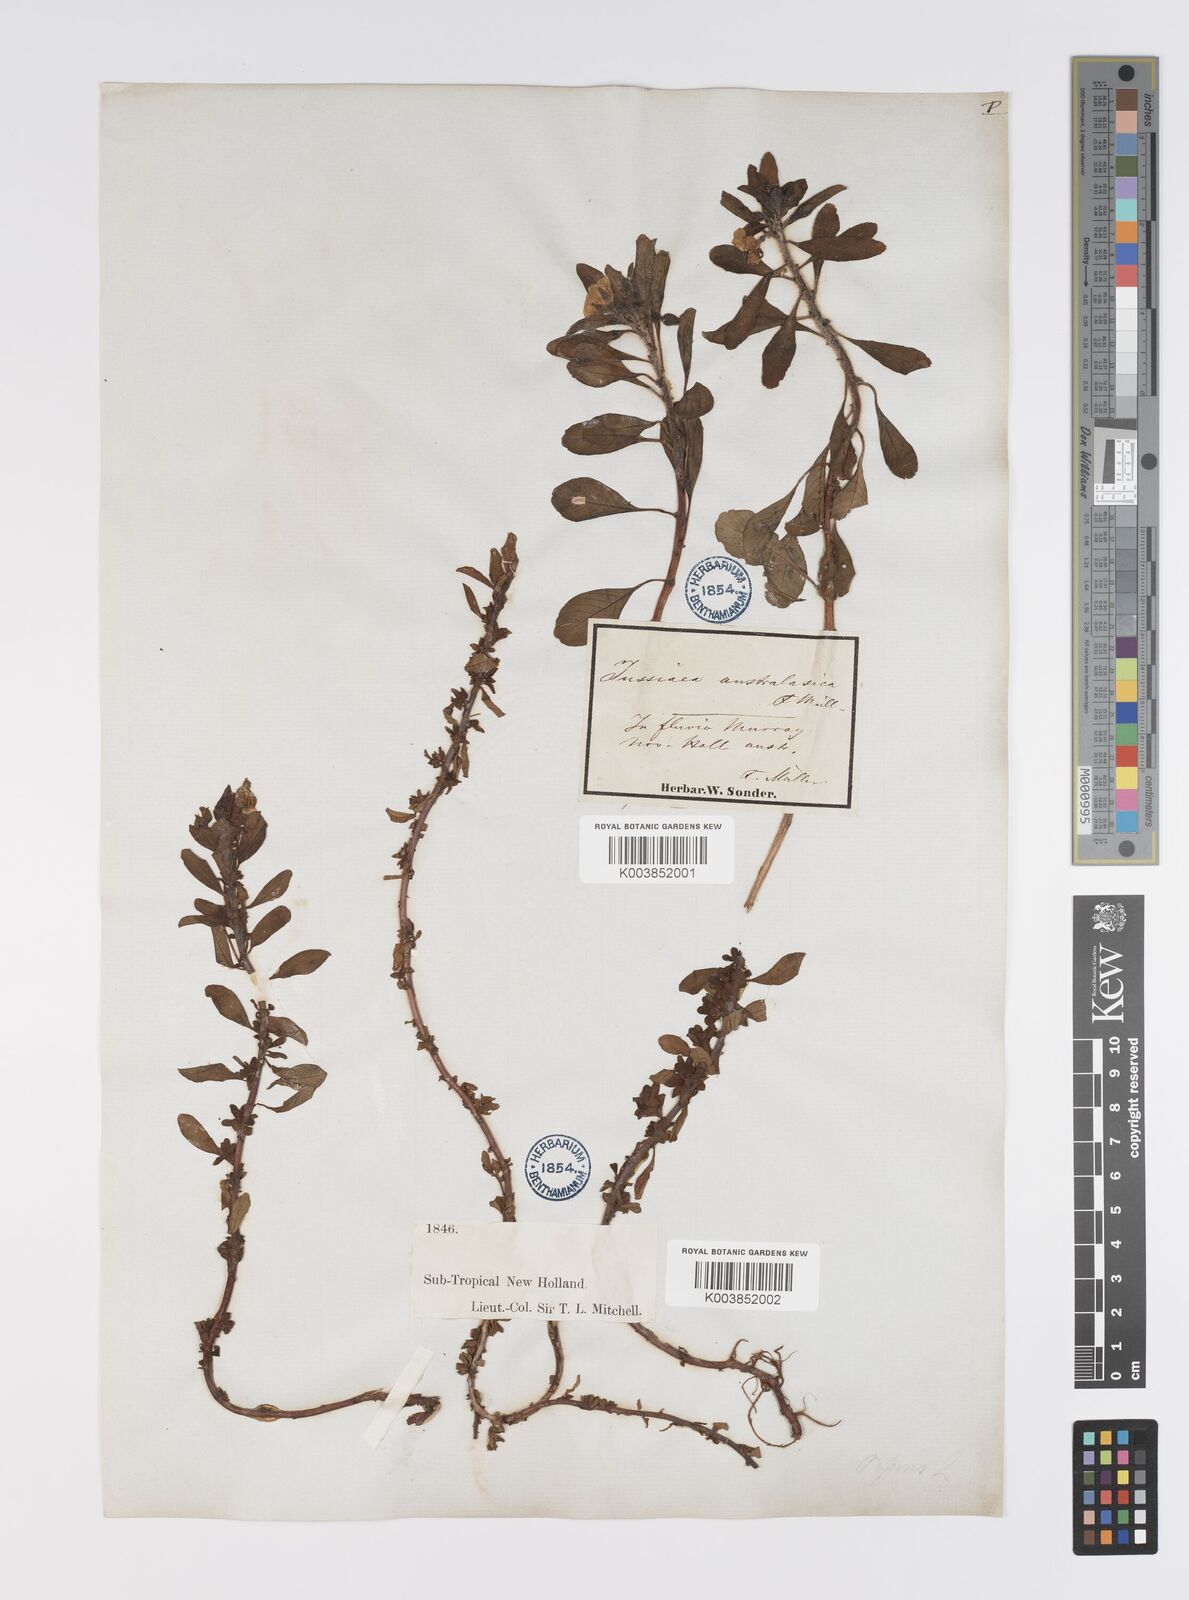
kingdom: Plantae
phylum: Tracheophyta
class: Magnoliopsida
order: Myrtales
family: Onagraceae
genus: Ludwigia
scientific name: Ludwigia peploides
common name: Floating primrose-willow
